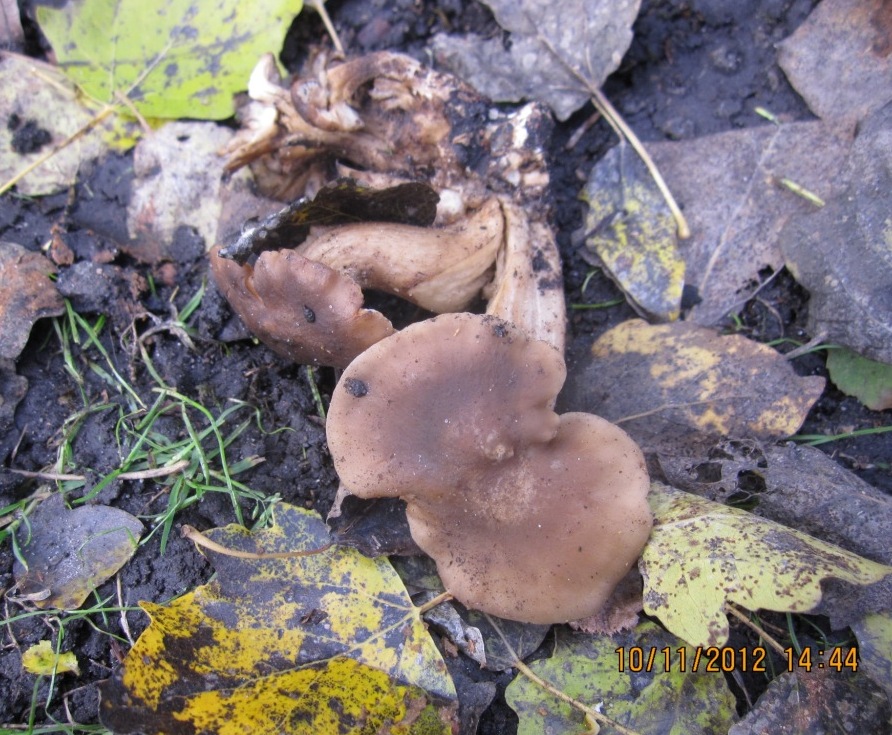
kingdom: Fungi
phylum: Basidiomycota
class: Agaricomycetes
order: Agaricales
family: Lyophyllaceae
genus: Lyophyllum
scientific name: Lyophyllum decastes
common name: røggrå gråblad
